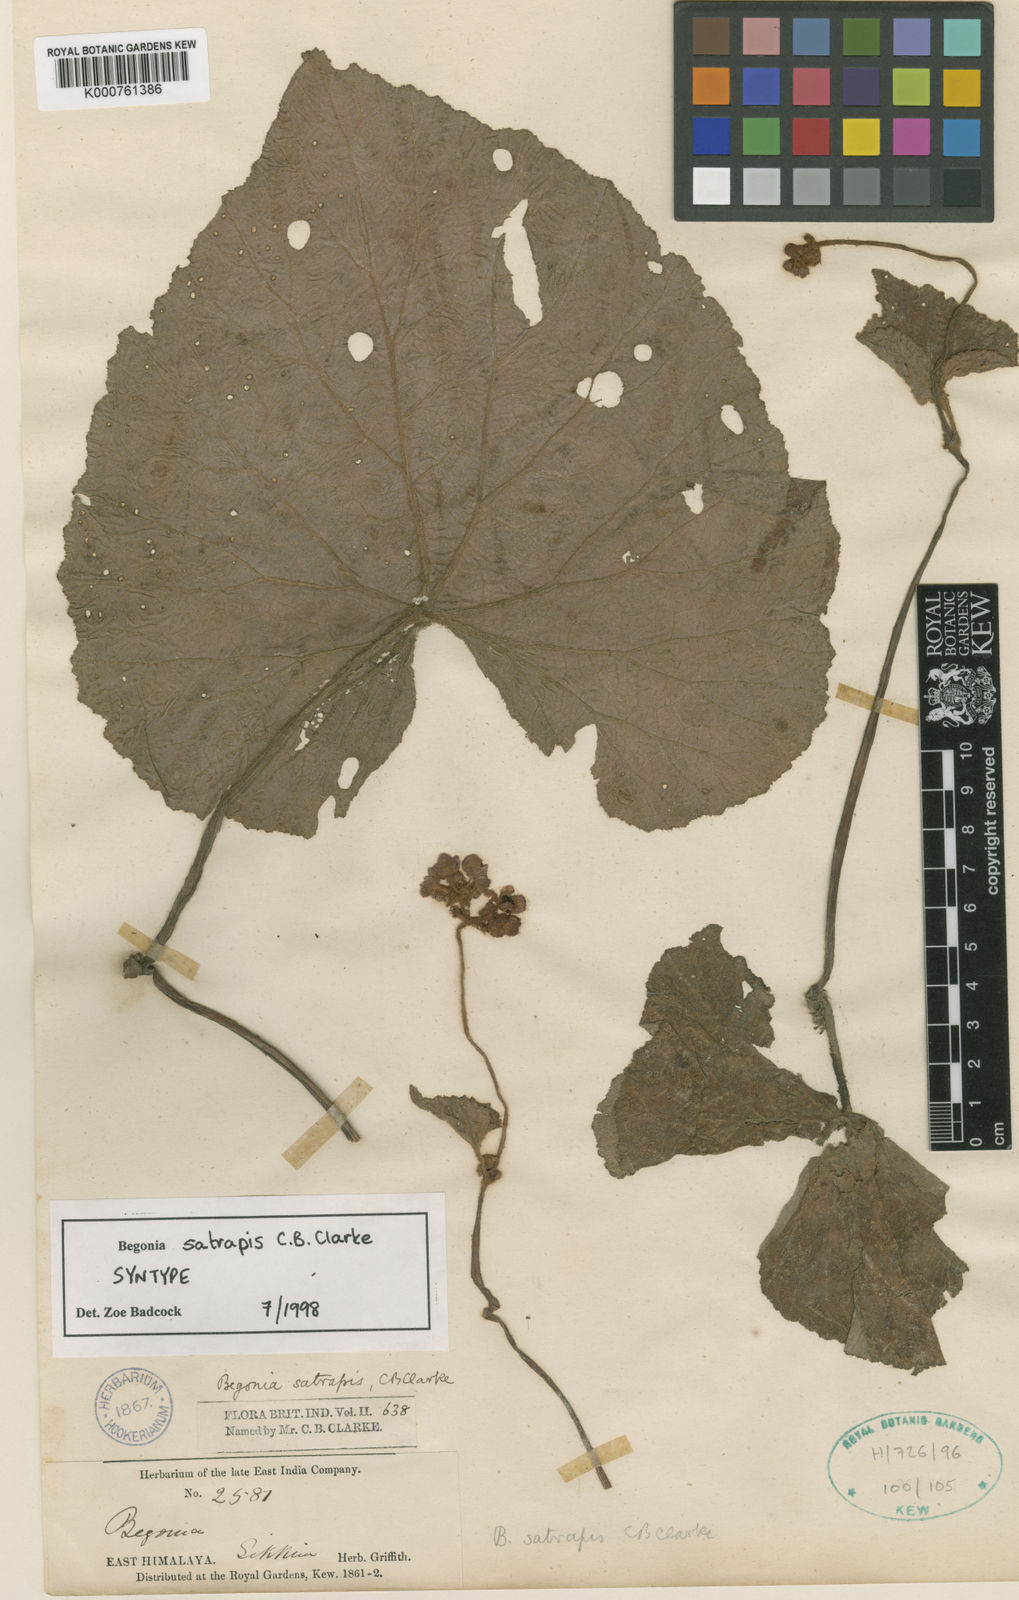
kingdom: Plantae
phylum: Tracheophyta
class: Magnoliopsida
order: Cucurbitales
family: Begoniaceae
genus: Begonia
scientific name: Begonia satrapis
